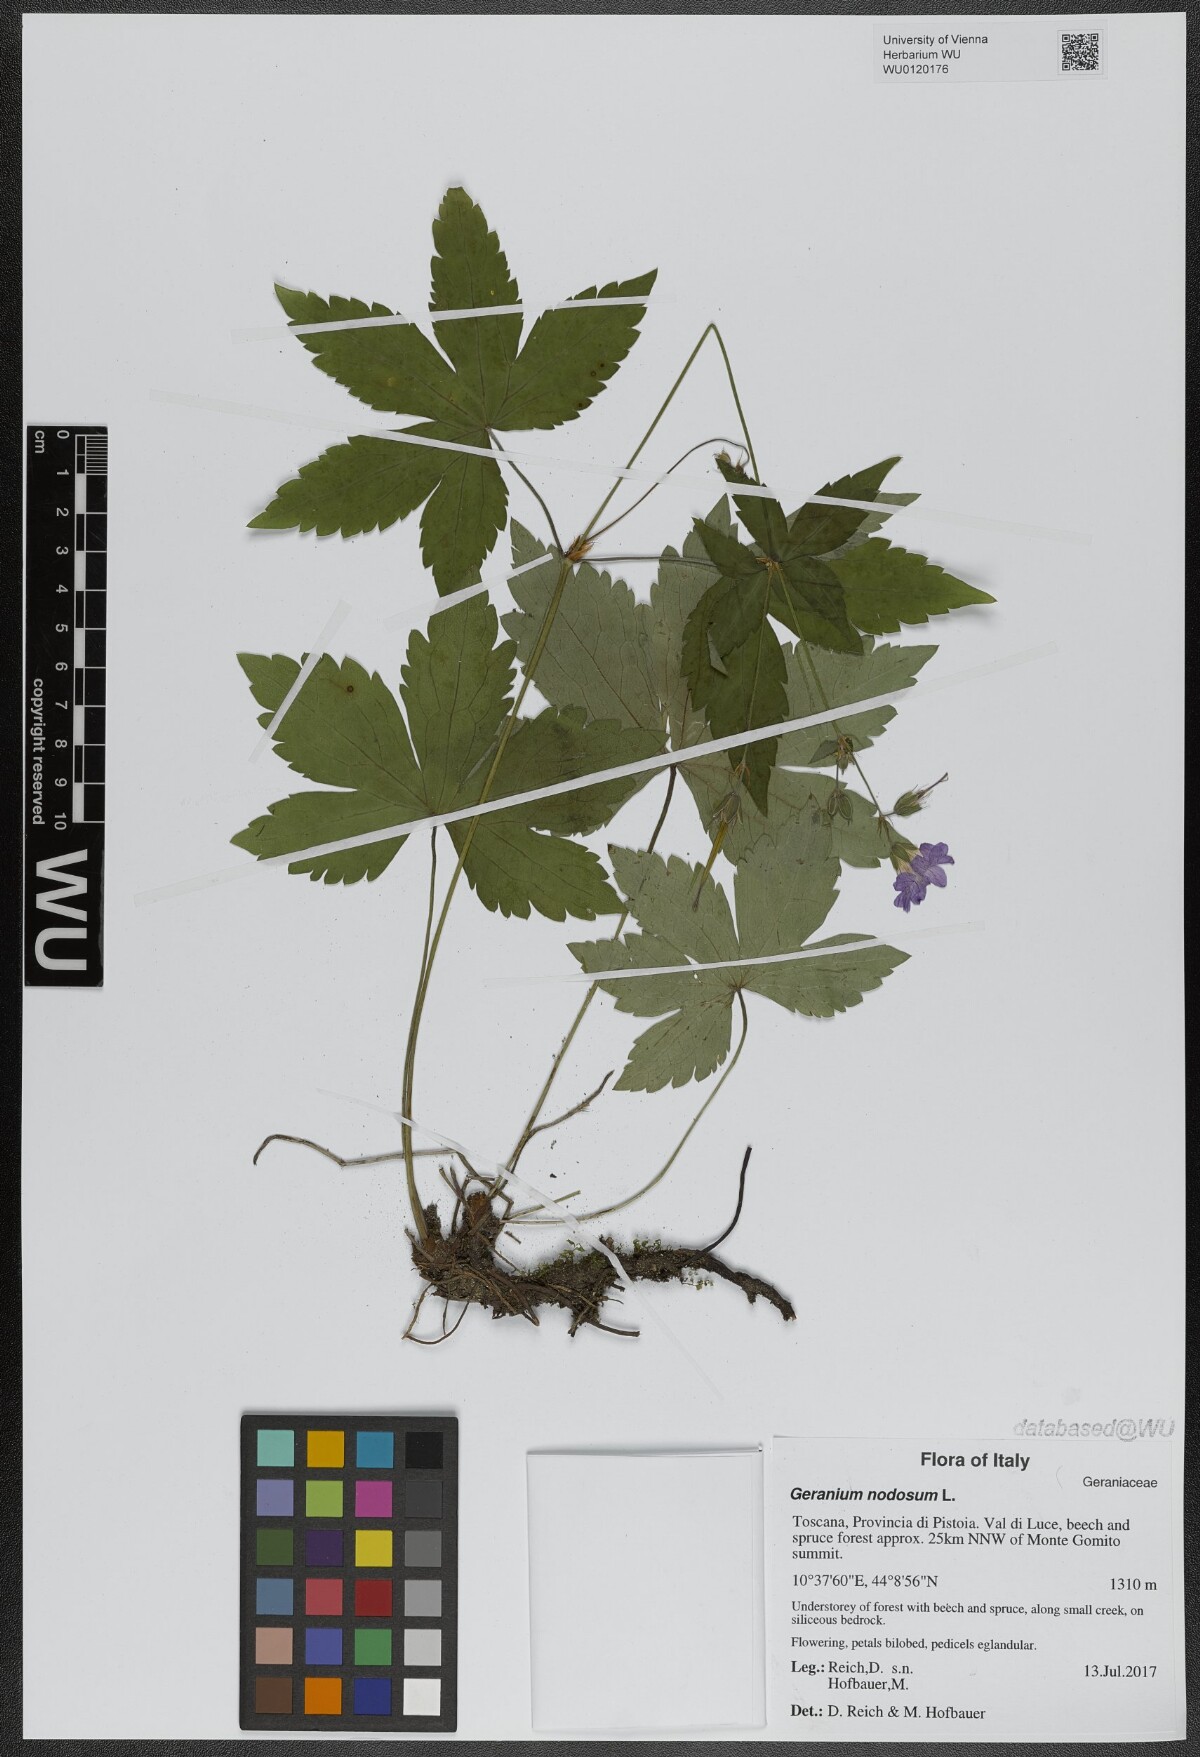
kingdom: Plantae
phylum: Tracheophyta
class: Magnoliopsida
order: Geraniales
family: Geraniaceae
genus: Geranium
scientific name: Geranium nodosum
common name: Knotted crane's-bill
